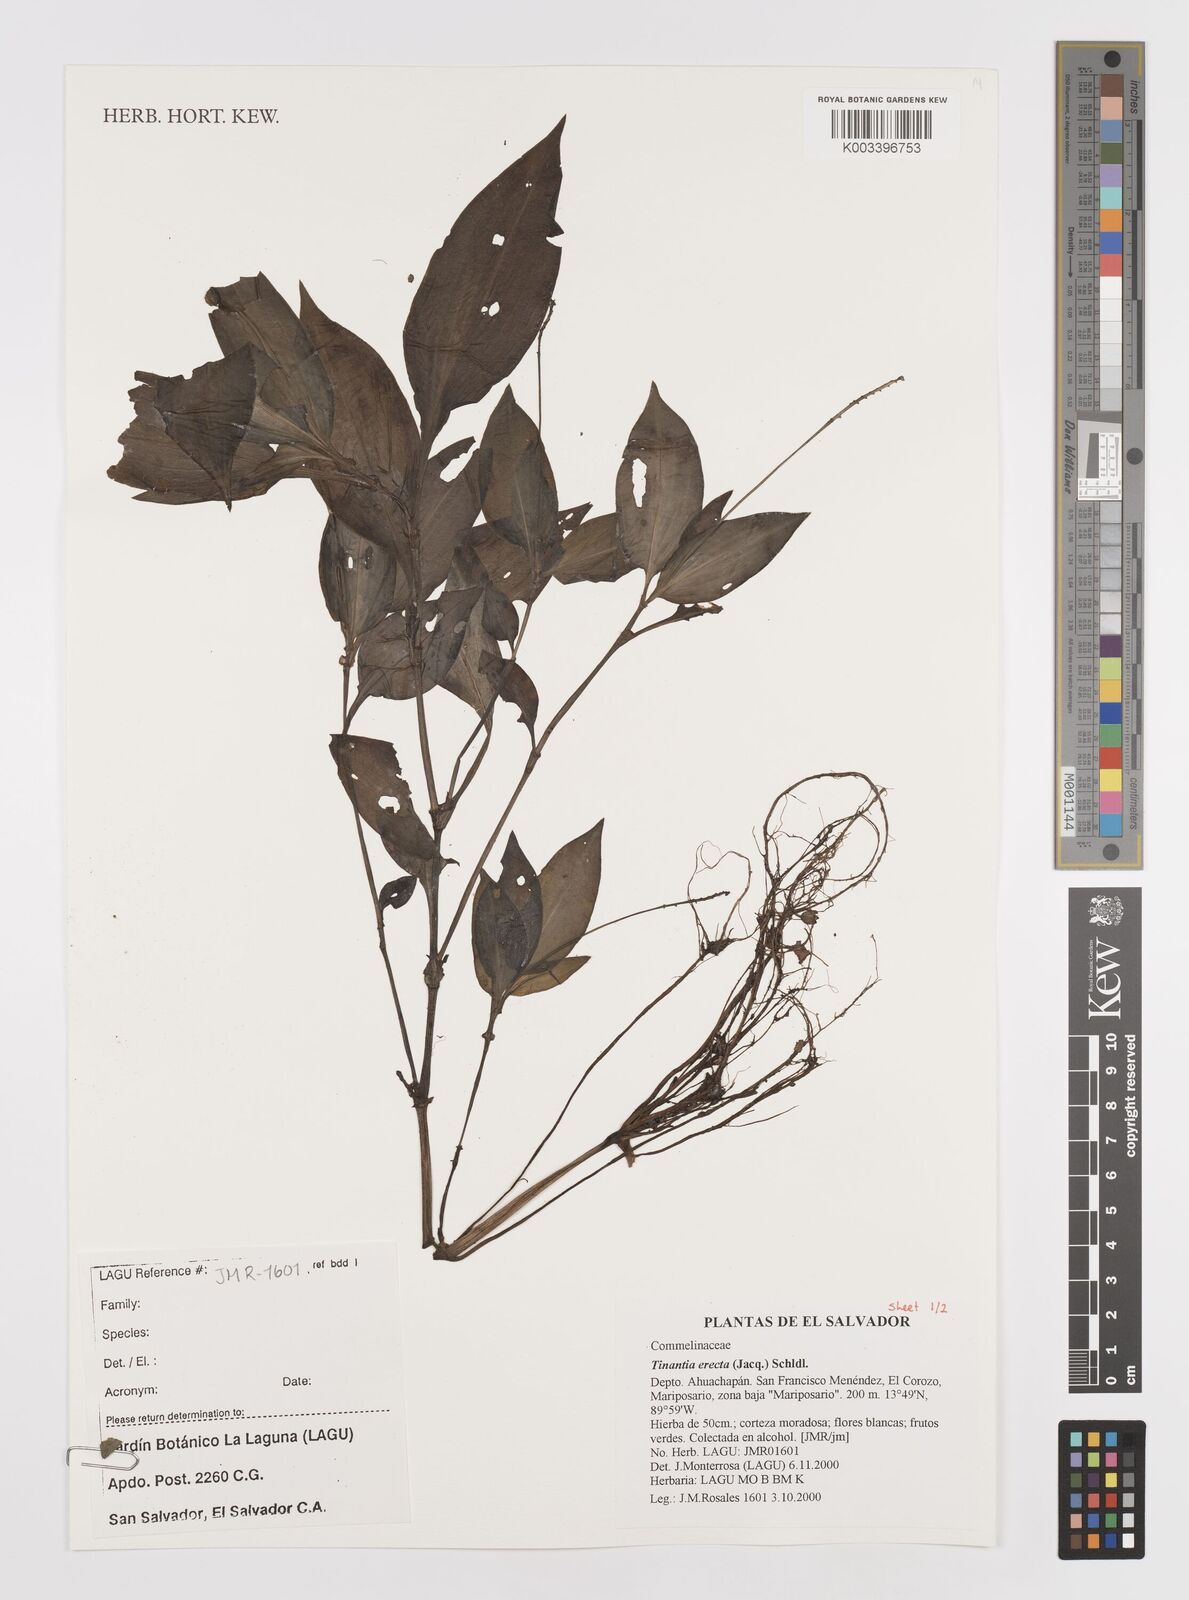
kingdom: Plantae
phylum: Tracheophyta
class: Liliopsida
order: Commelinales
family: Commelinaceae
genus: Tinantia
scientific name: Tinantia erecta
